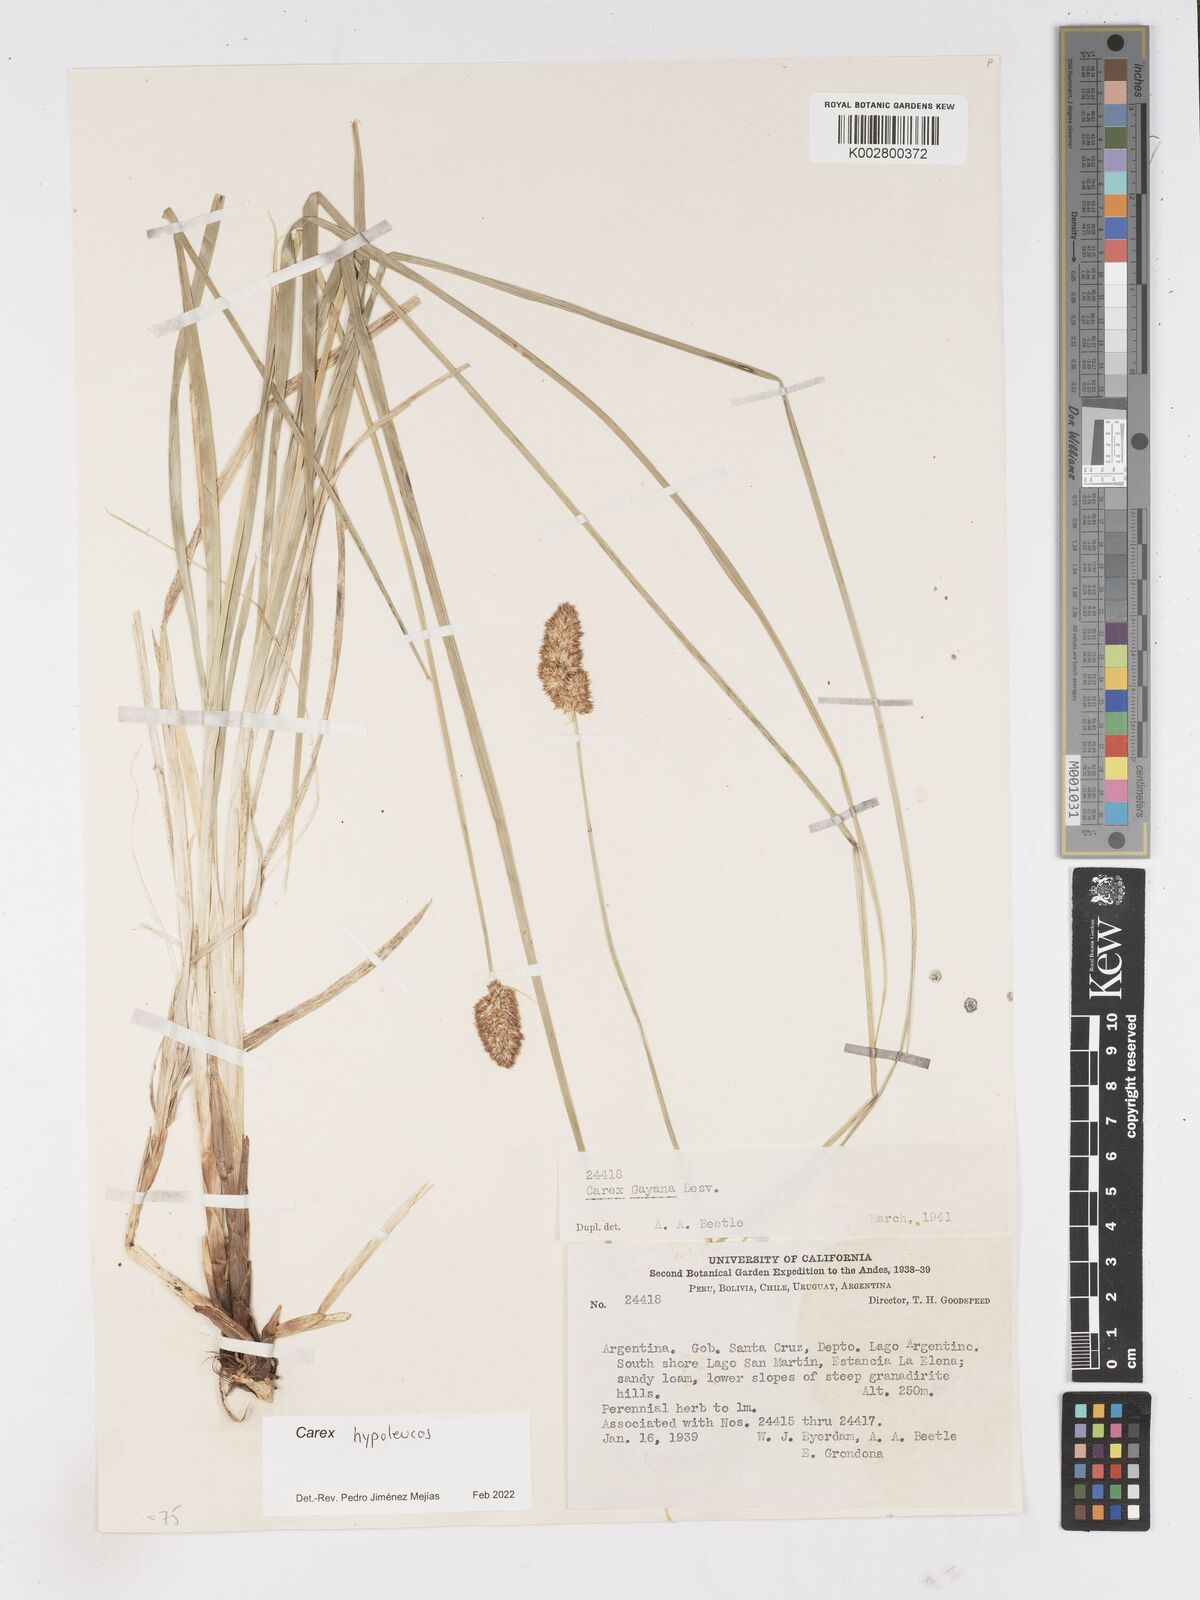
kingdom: Plantae
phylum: Tracheophyta
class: Liliopsida
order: Poales
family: Cyperaceae
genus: Carex
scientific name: Carex macrorrhiza
